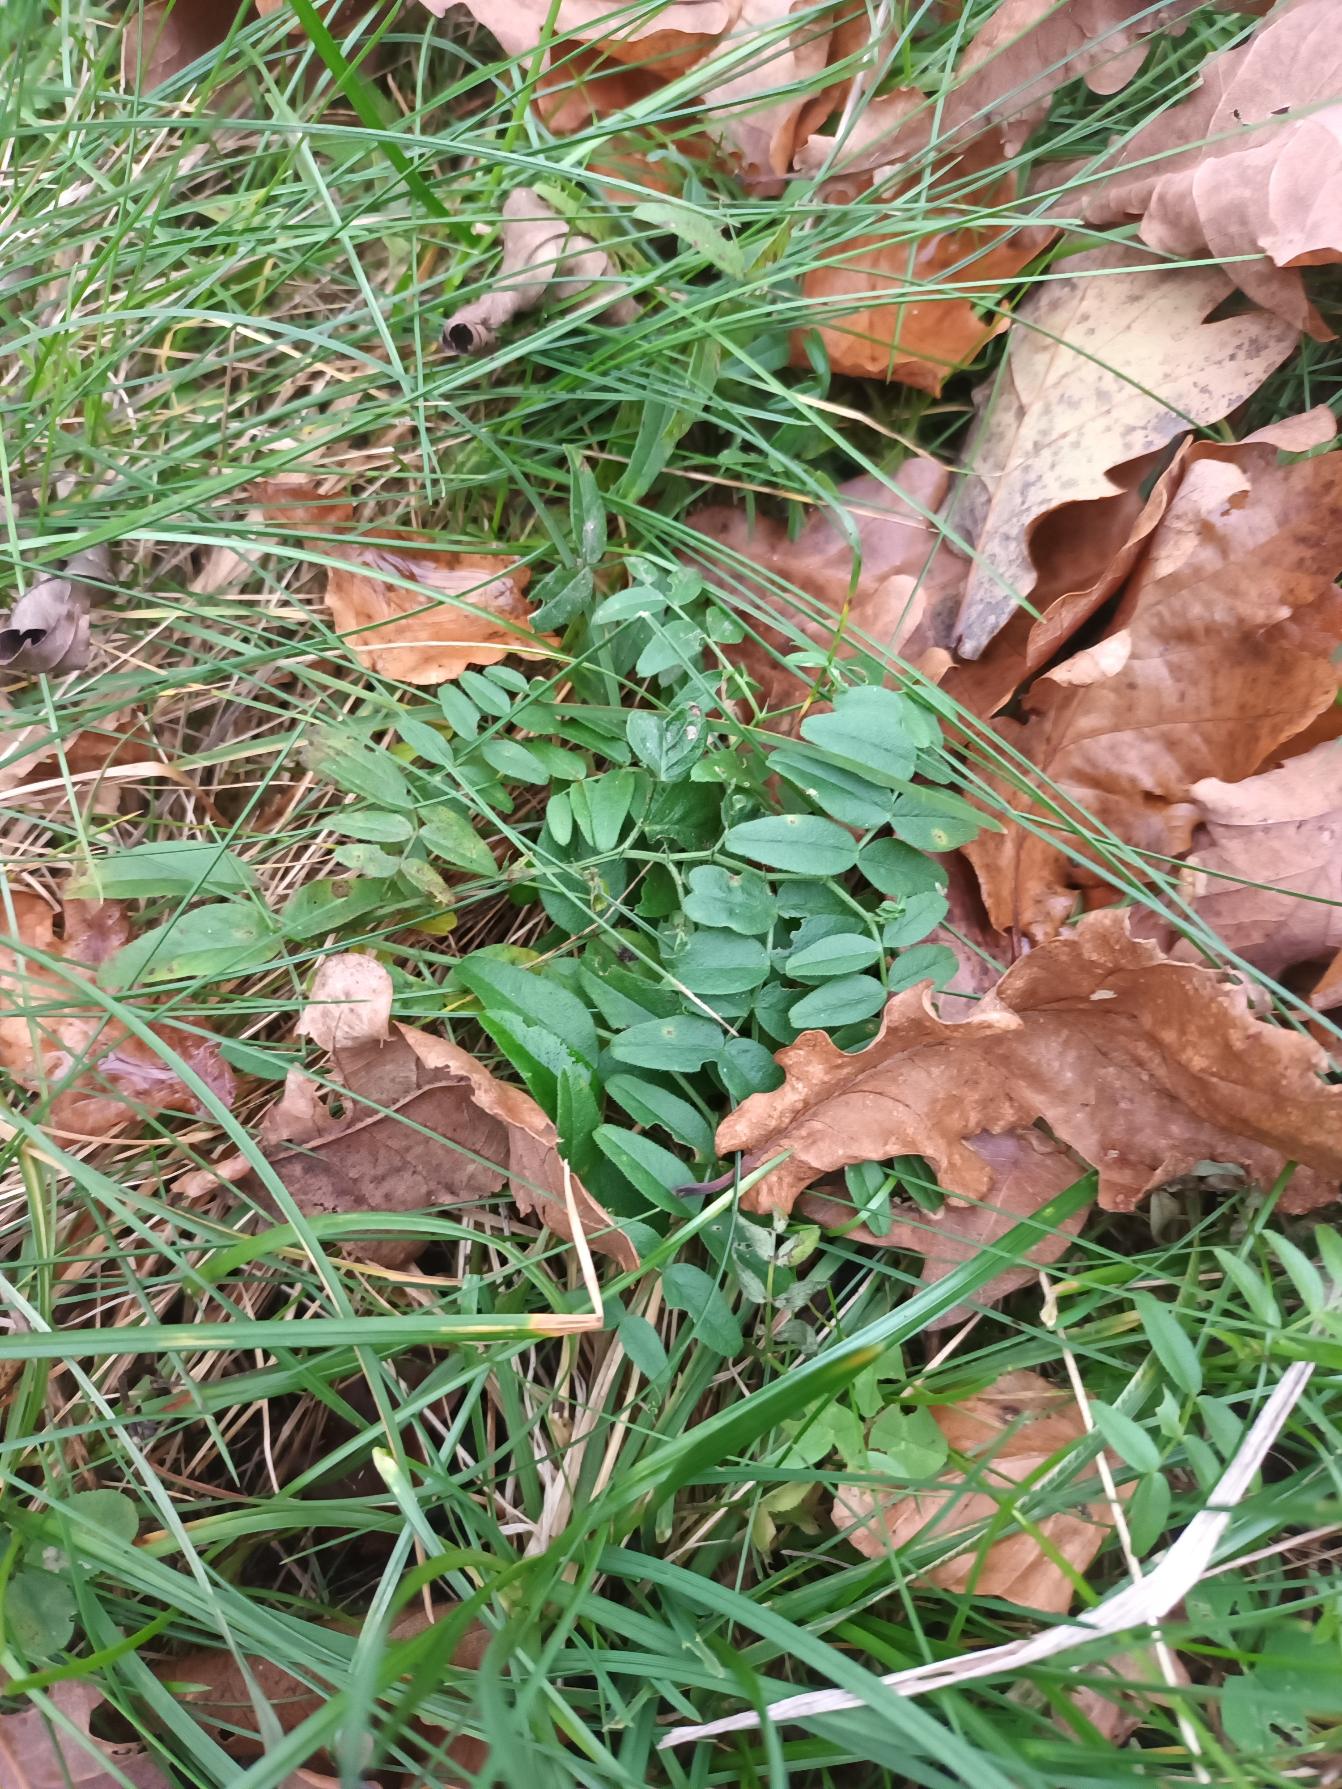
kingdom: Plantae
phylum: Tracheophyta
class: Magnoliopsida
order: Fabales
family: Fabaceae
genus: Vicia
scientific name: Vicia sepium
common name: Gærde-vikke
